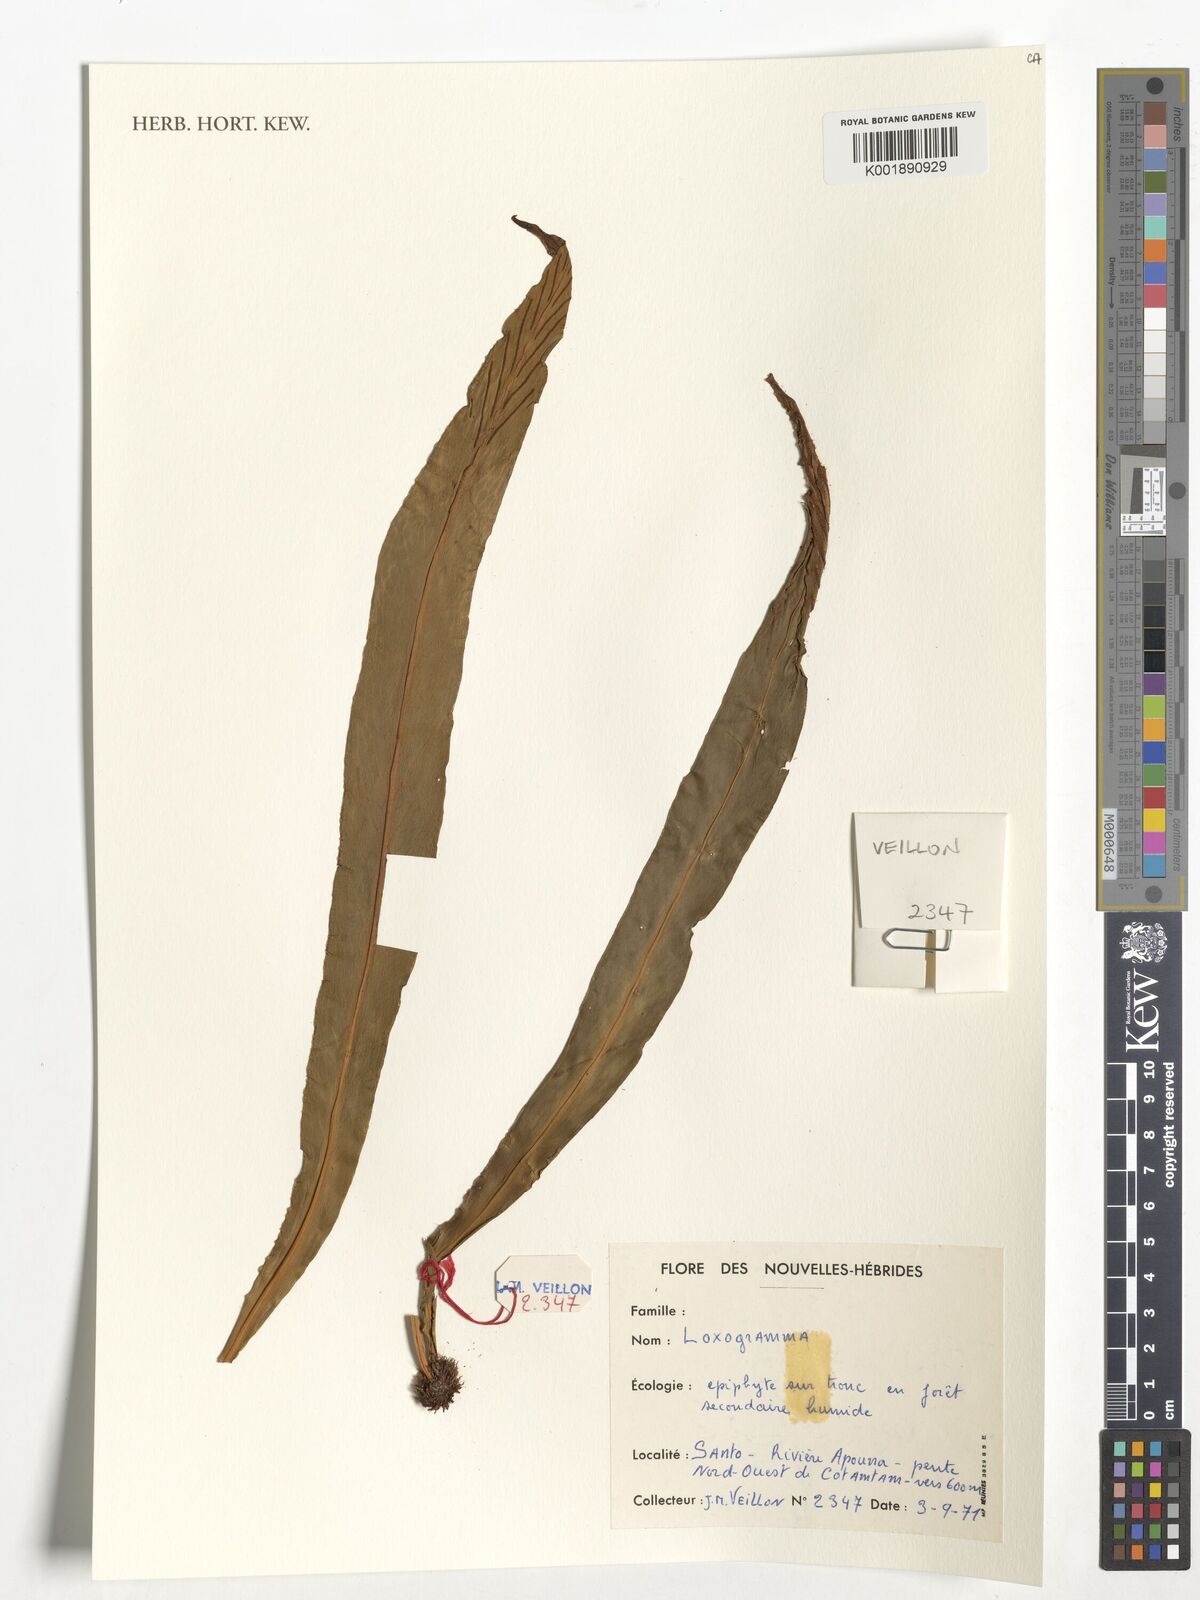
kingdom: Plantae
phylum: Tracheophyta
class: Magnoliopsida
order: Lamiales
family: Orobanchaceae
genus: Alectra
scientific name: Alectra sessiliflora
